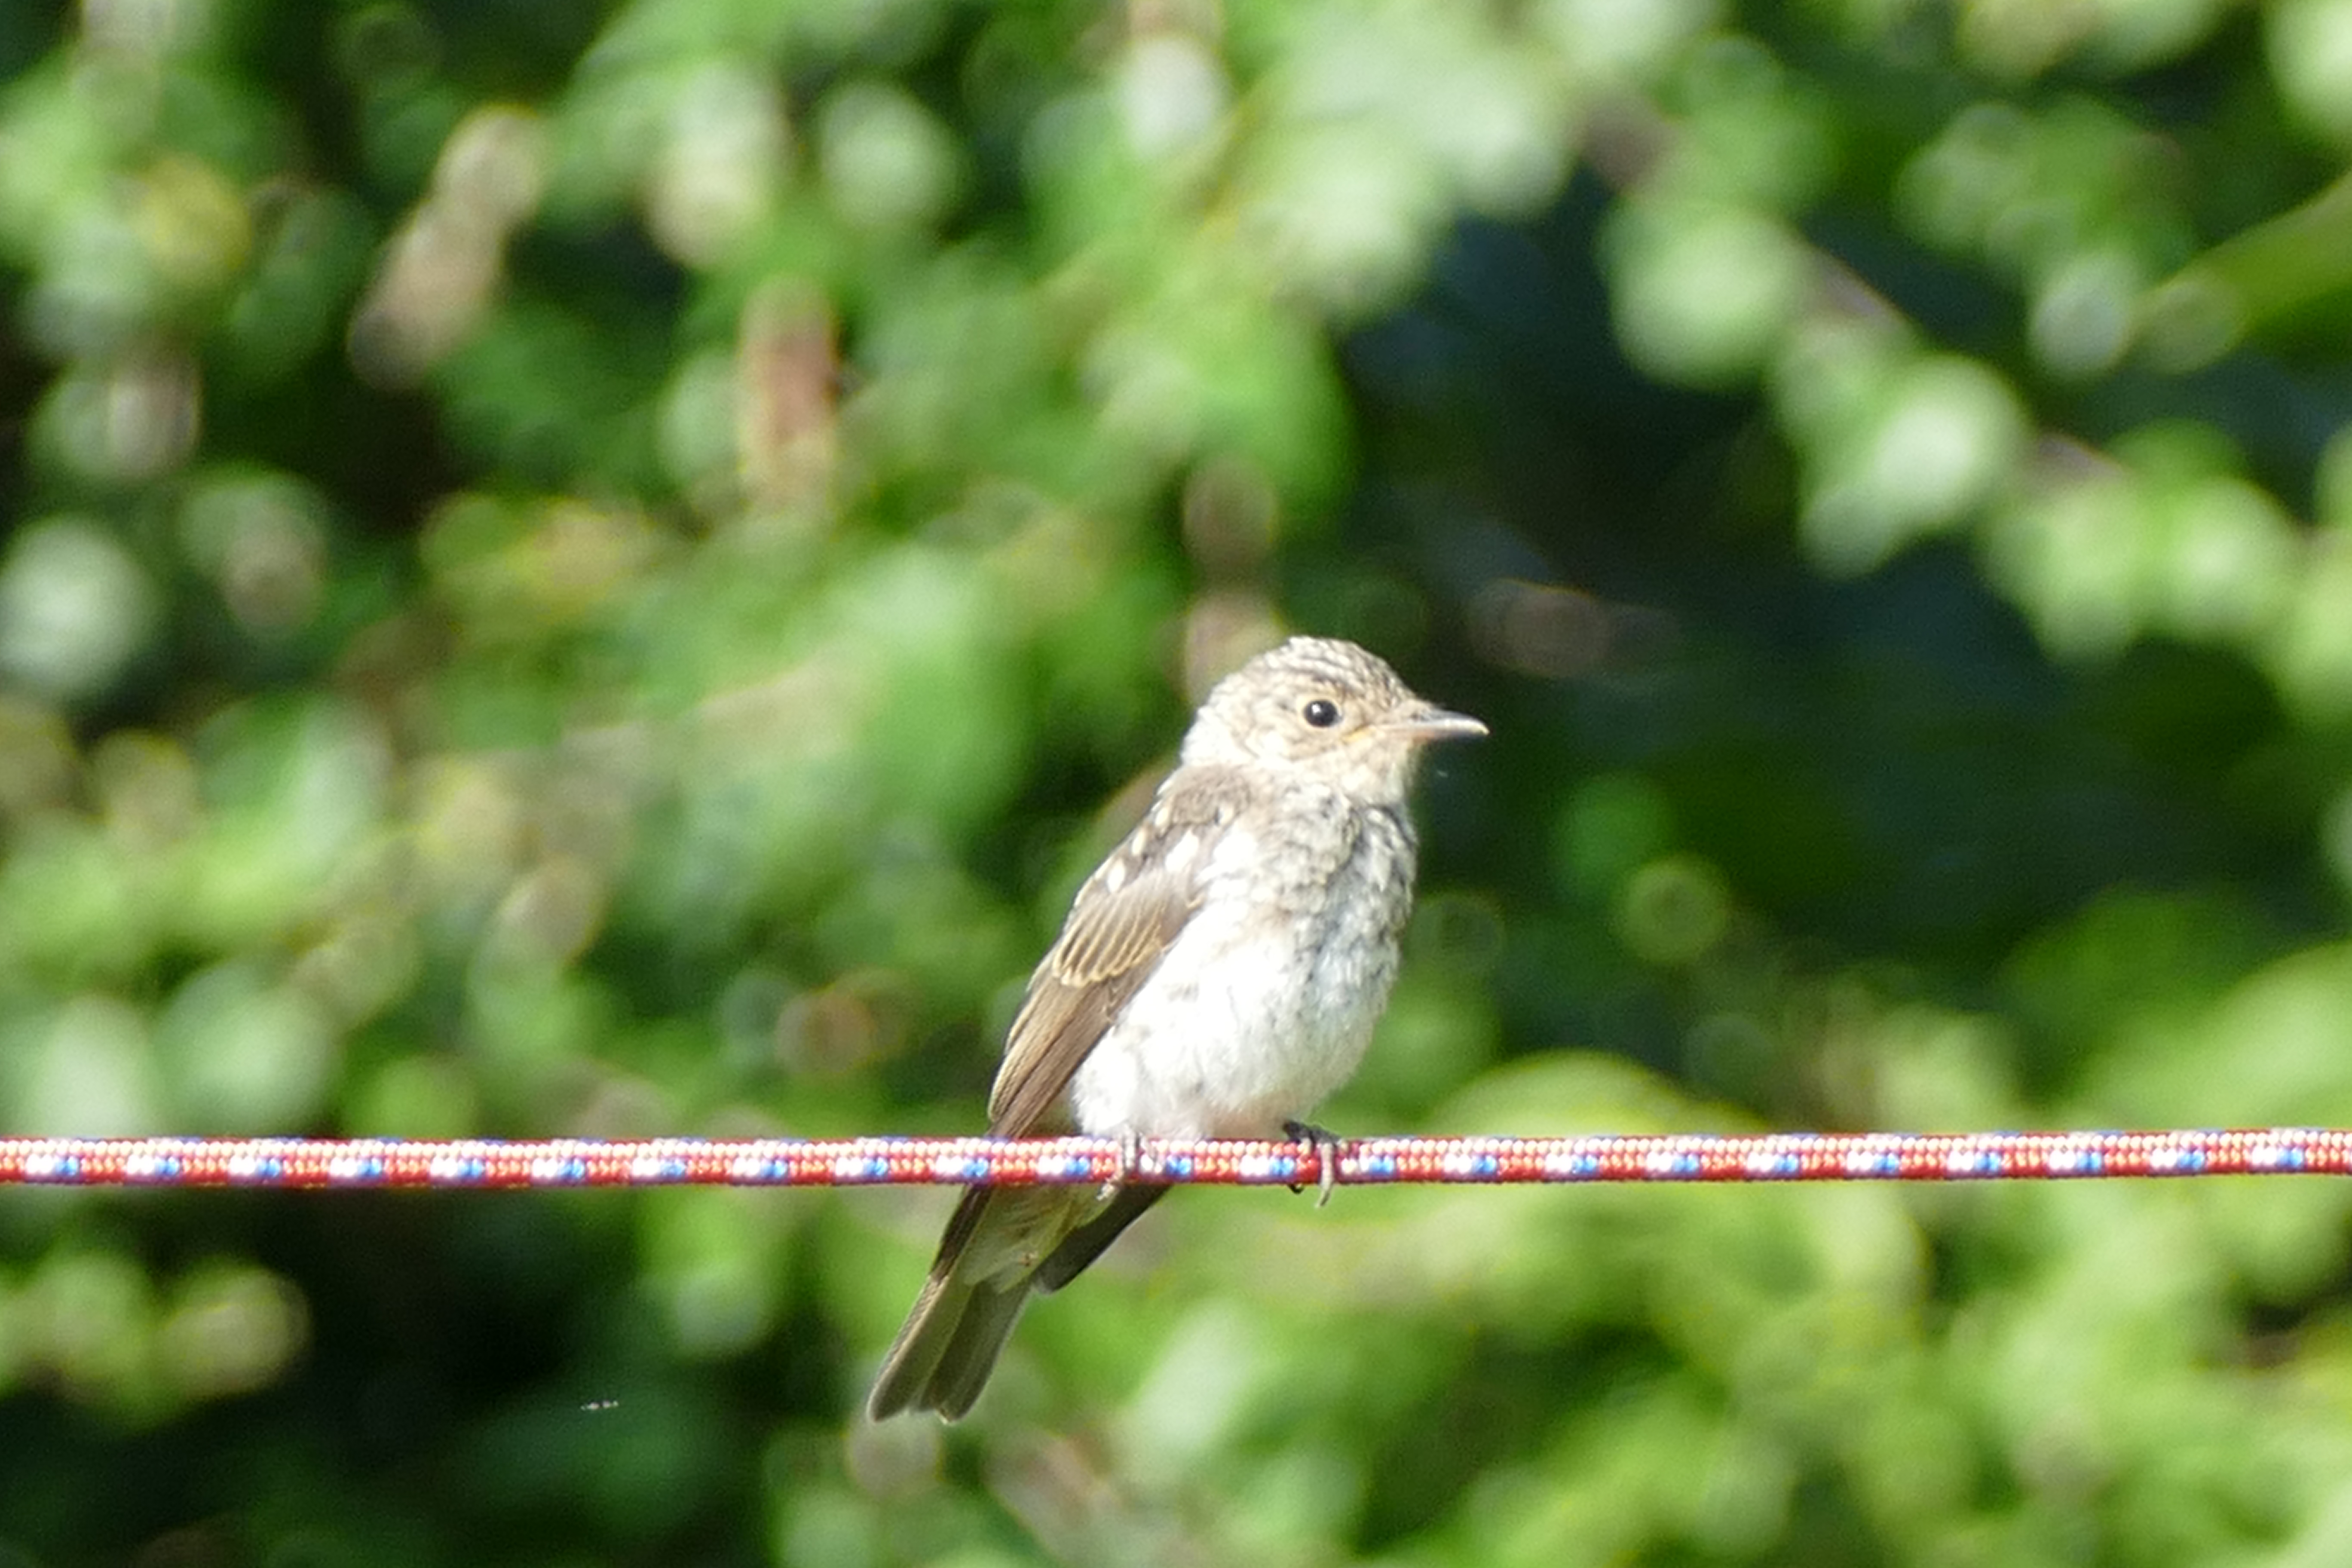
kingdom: Animalia
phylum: Chordata
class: Aves
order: Passeriformes
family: Muscicapidae
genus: Muscicapa
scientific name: Muscicapa striata
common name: Grå fluesnapper
